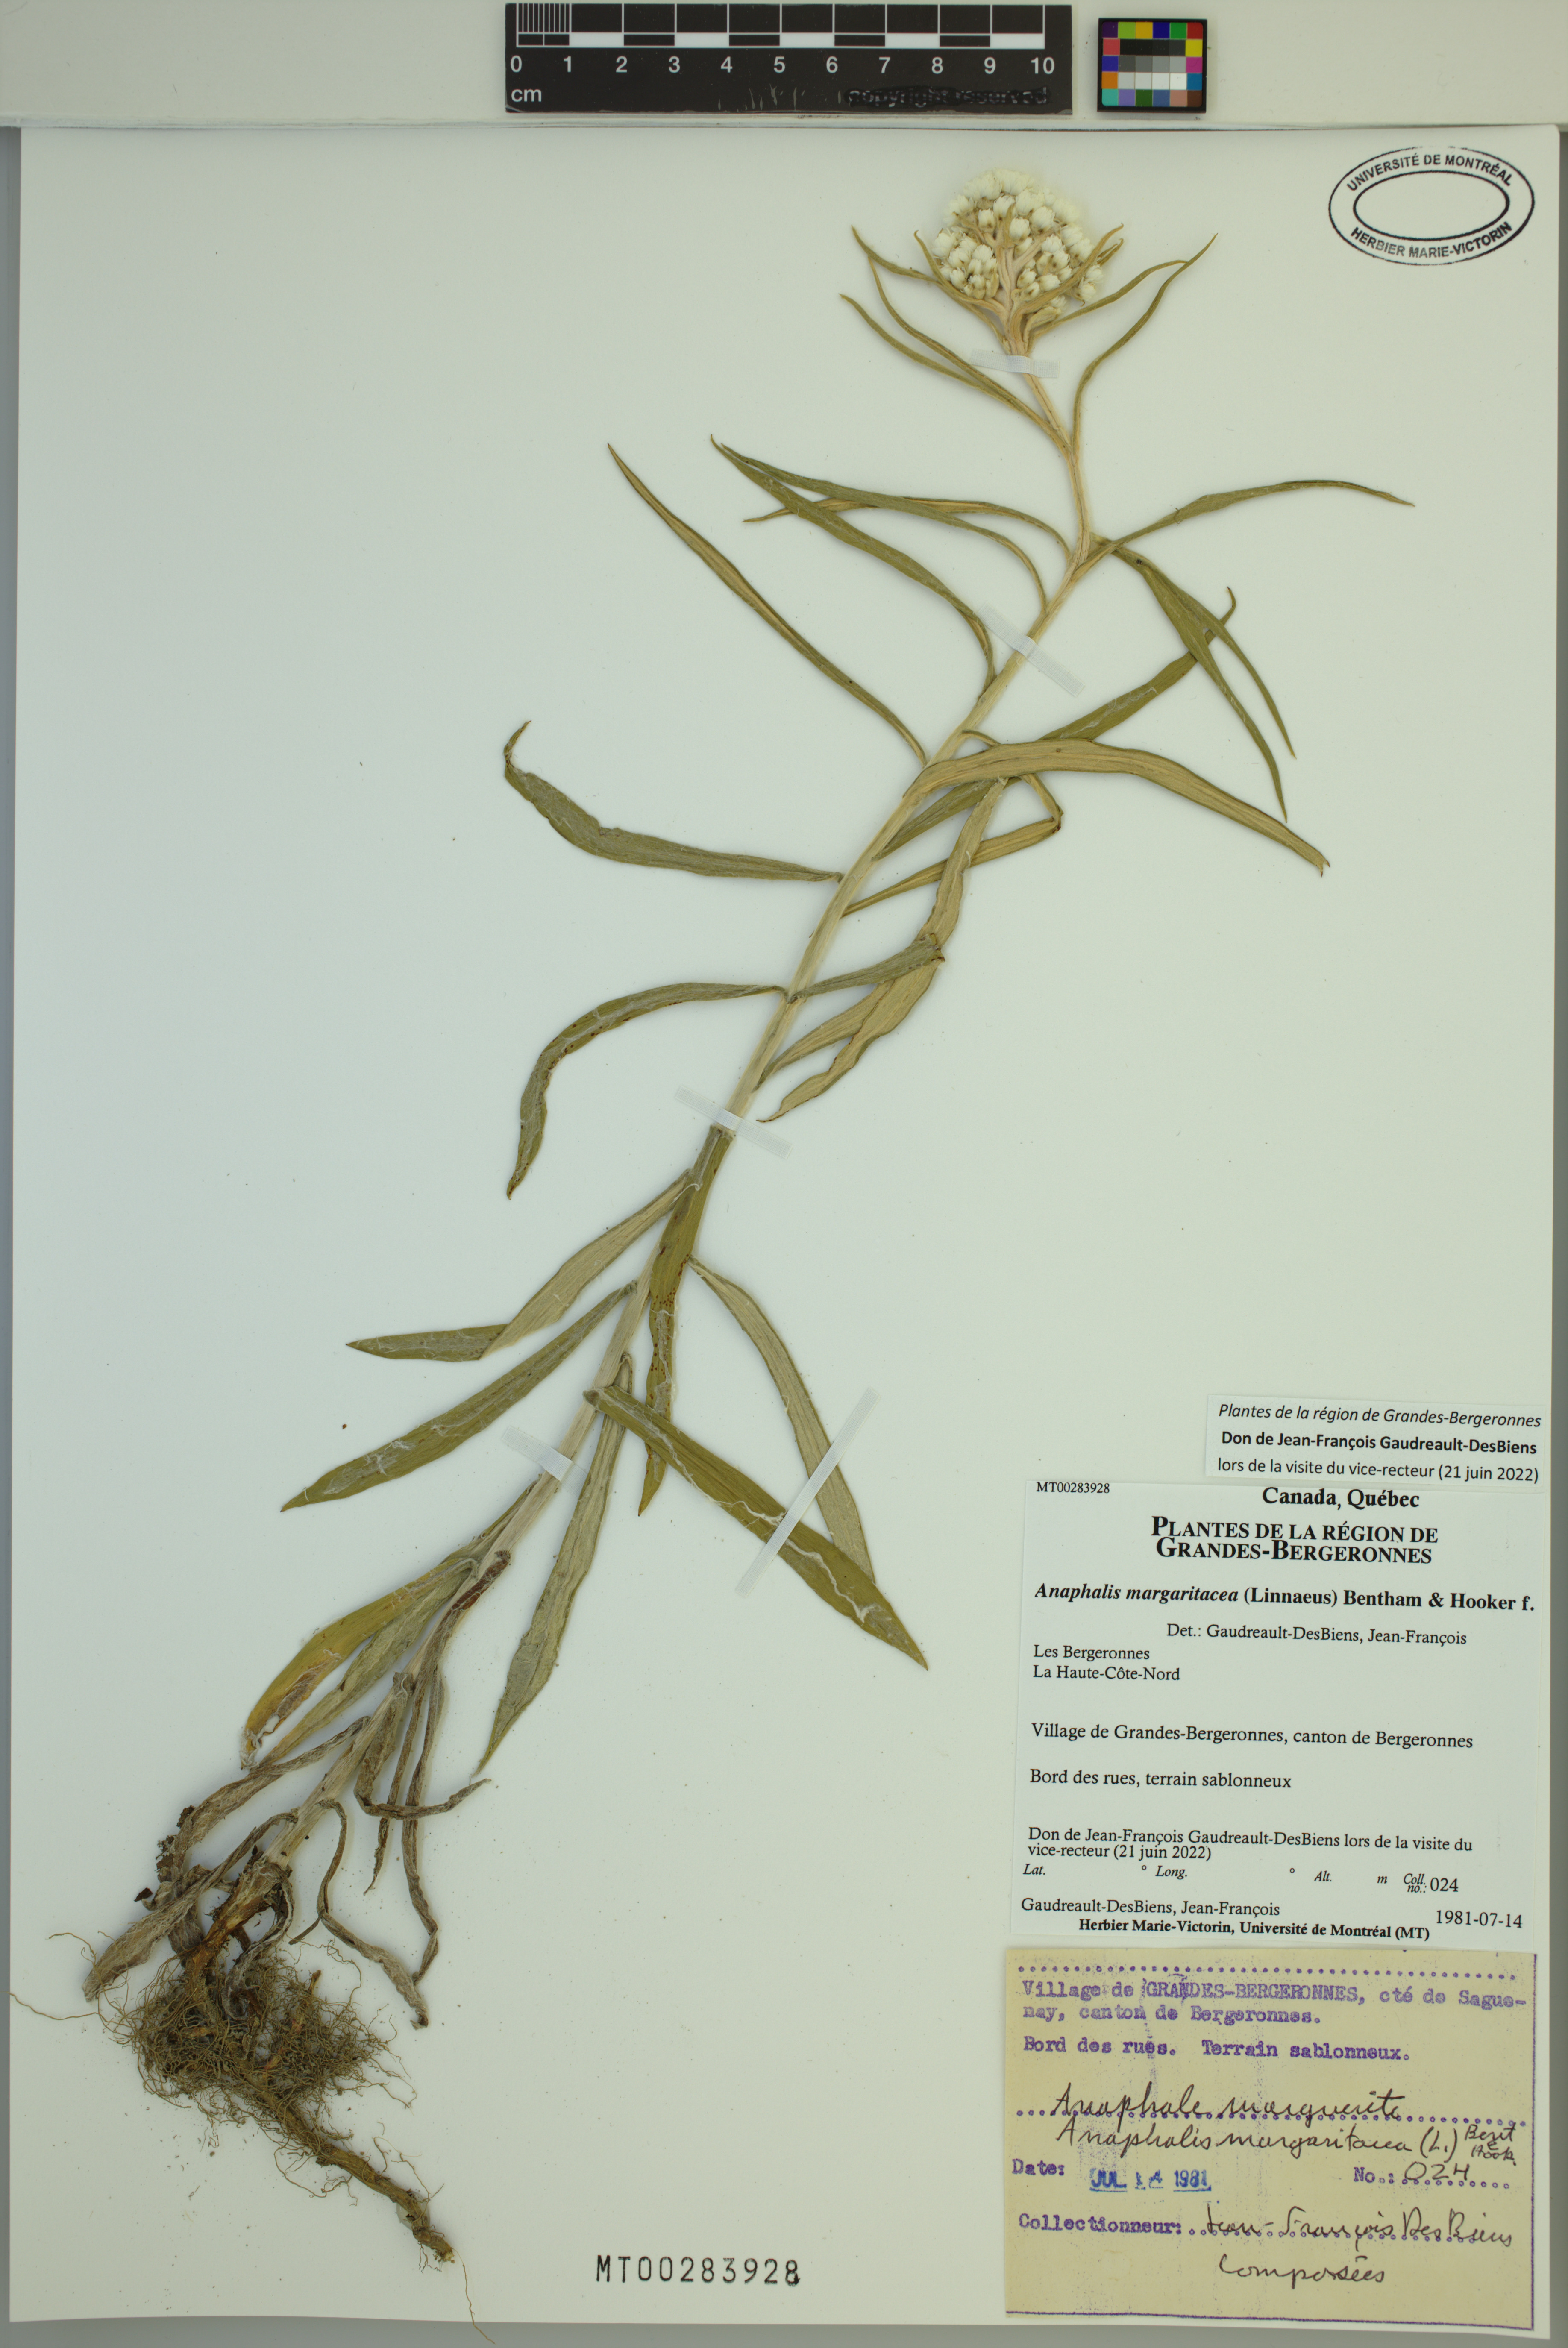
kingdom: Plantae
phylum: Tracheophyta
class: Magnoliopsida
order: Asterales
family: Asteraceae
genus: Anaphalis
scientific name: Anaphalis margaritacea
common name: Pearly everlasting
